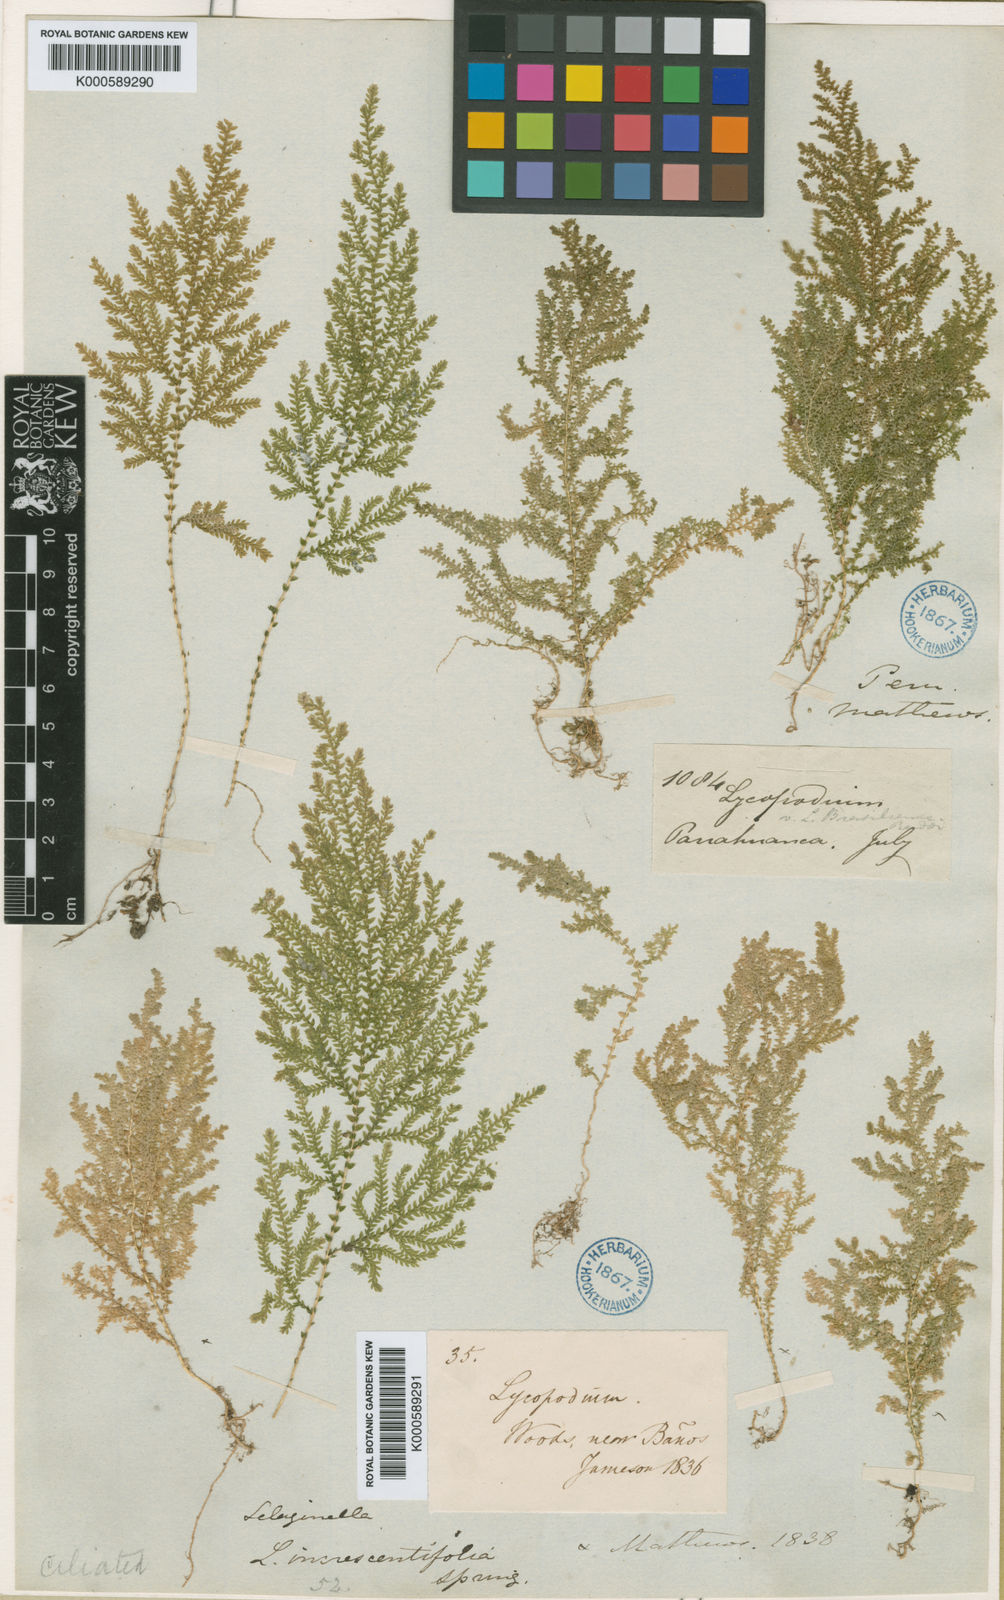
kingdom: Plantae
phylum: Tracheophyta
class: Lycopodiopsida
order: Selaginellales
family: Selaginellaceae
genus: Selaginella
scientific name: Selaginella novae-hollandiae
